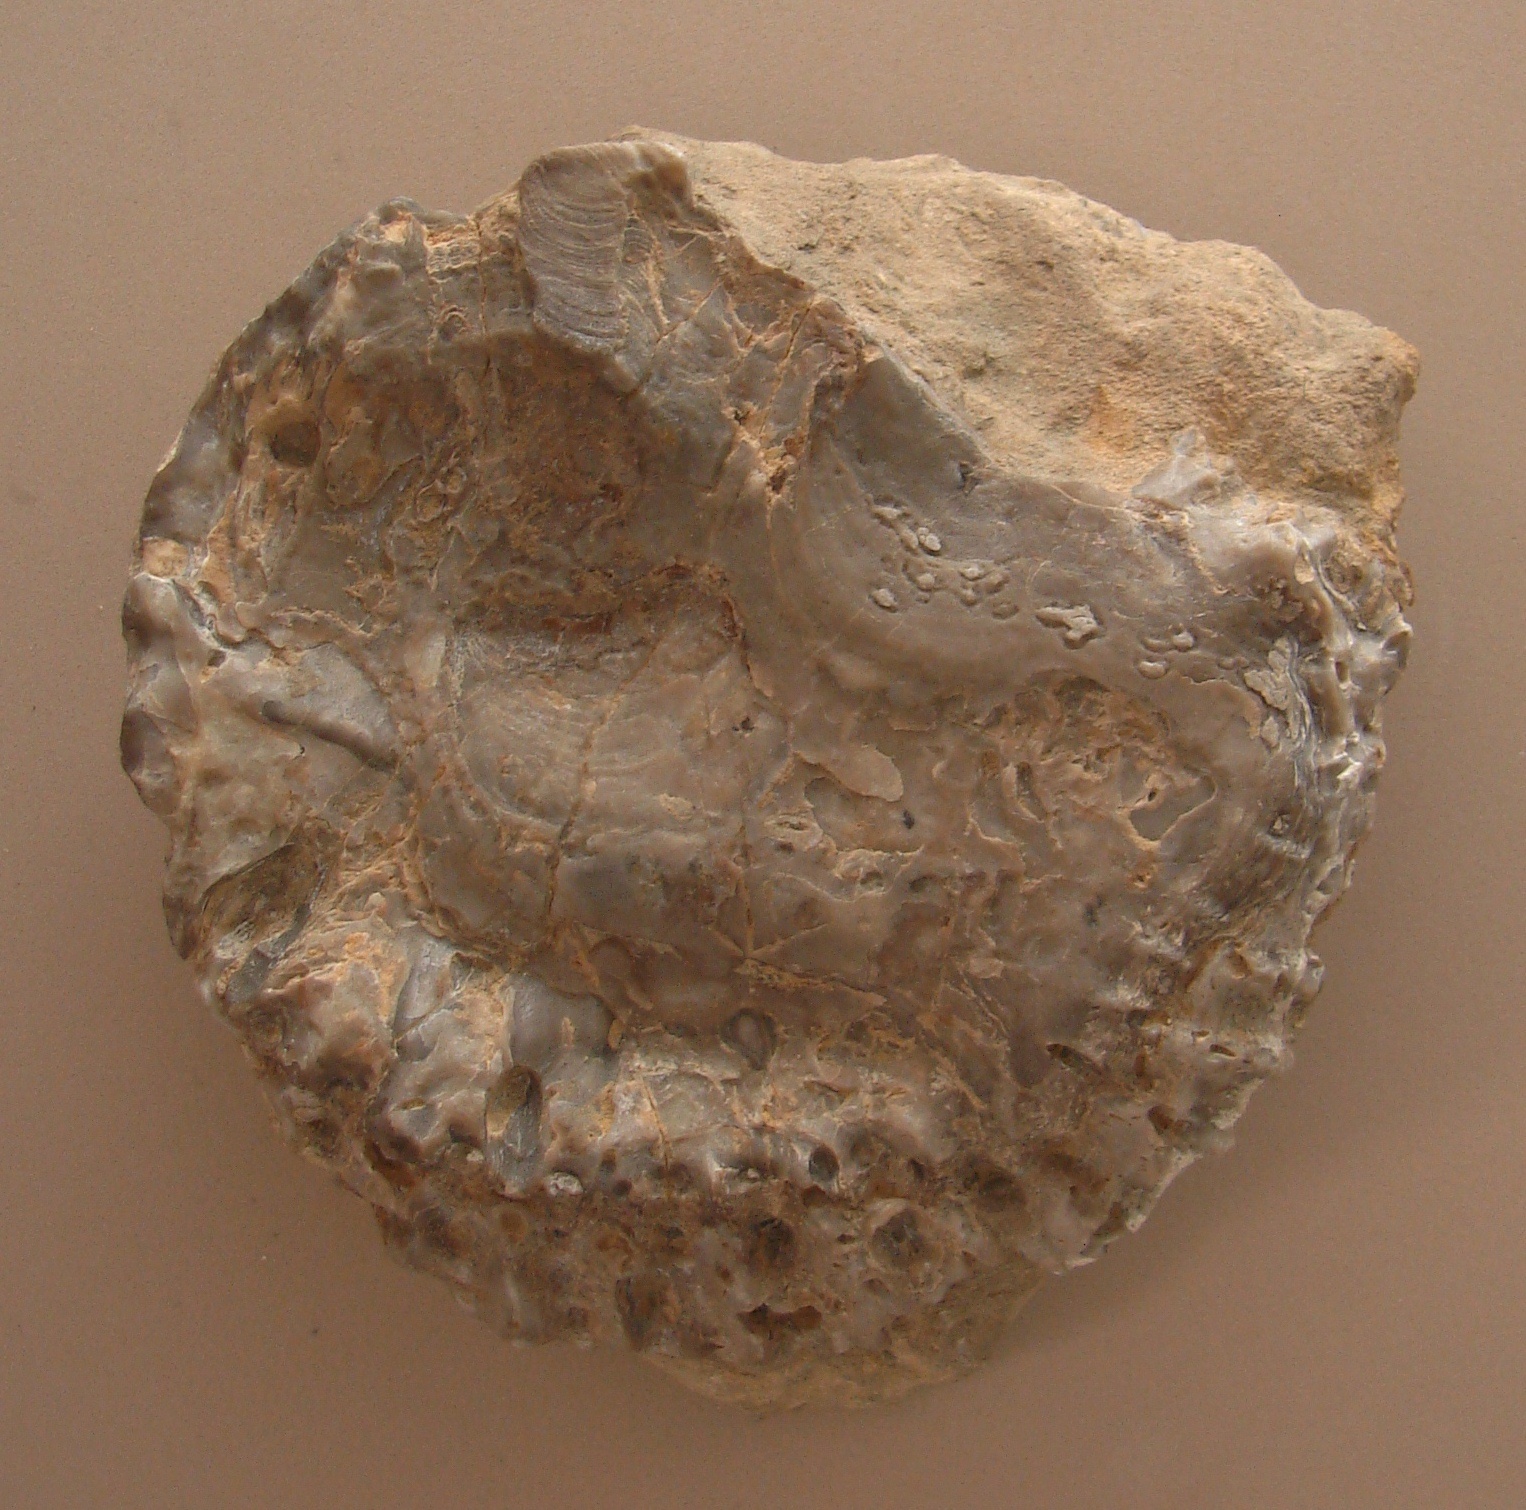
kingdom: Animalia
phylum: Mollusca
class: Bivalvia
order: Ostreida
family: Ostreidae
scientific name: Ostreidae
